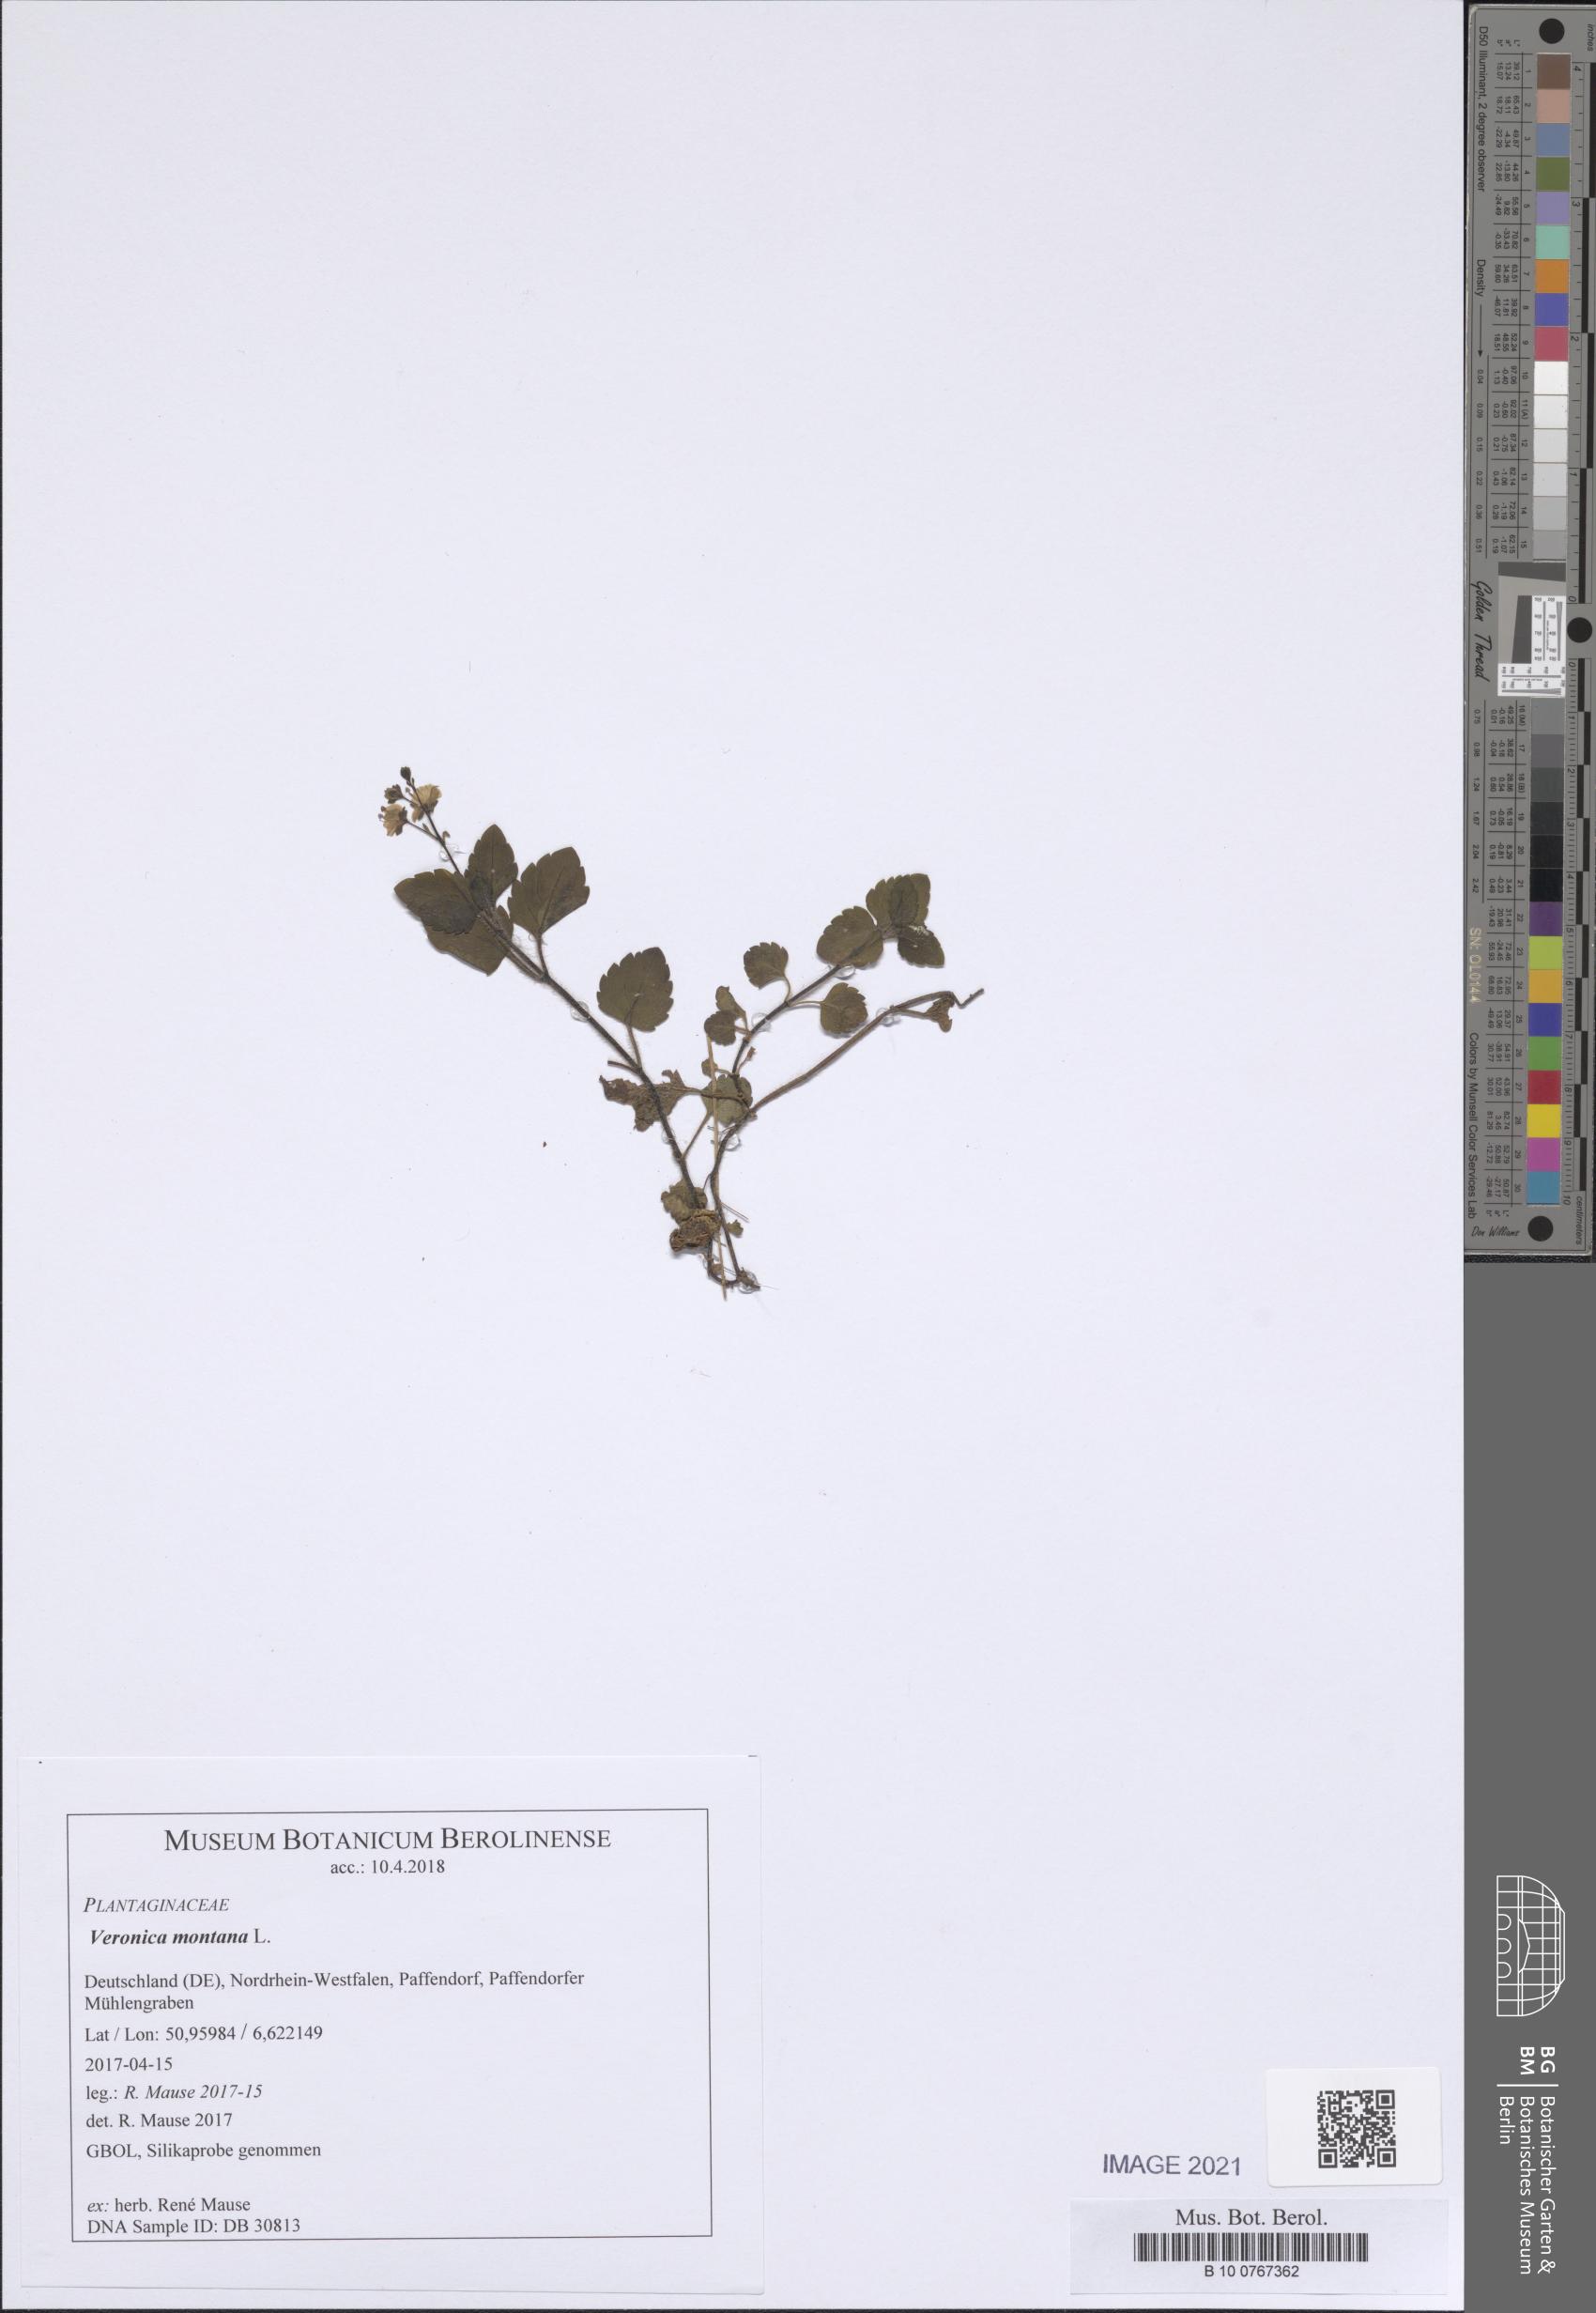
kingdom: Plantae
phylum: Tracheophyta
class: Magnoliopsida
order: Lamiales
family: Plantaginaceae
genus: Veronica
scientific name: Veronica montana
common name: Wood speedwell
